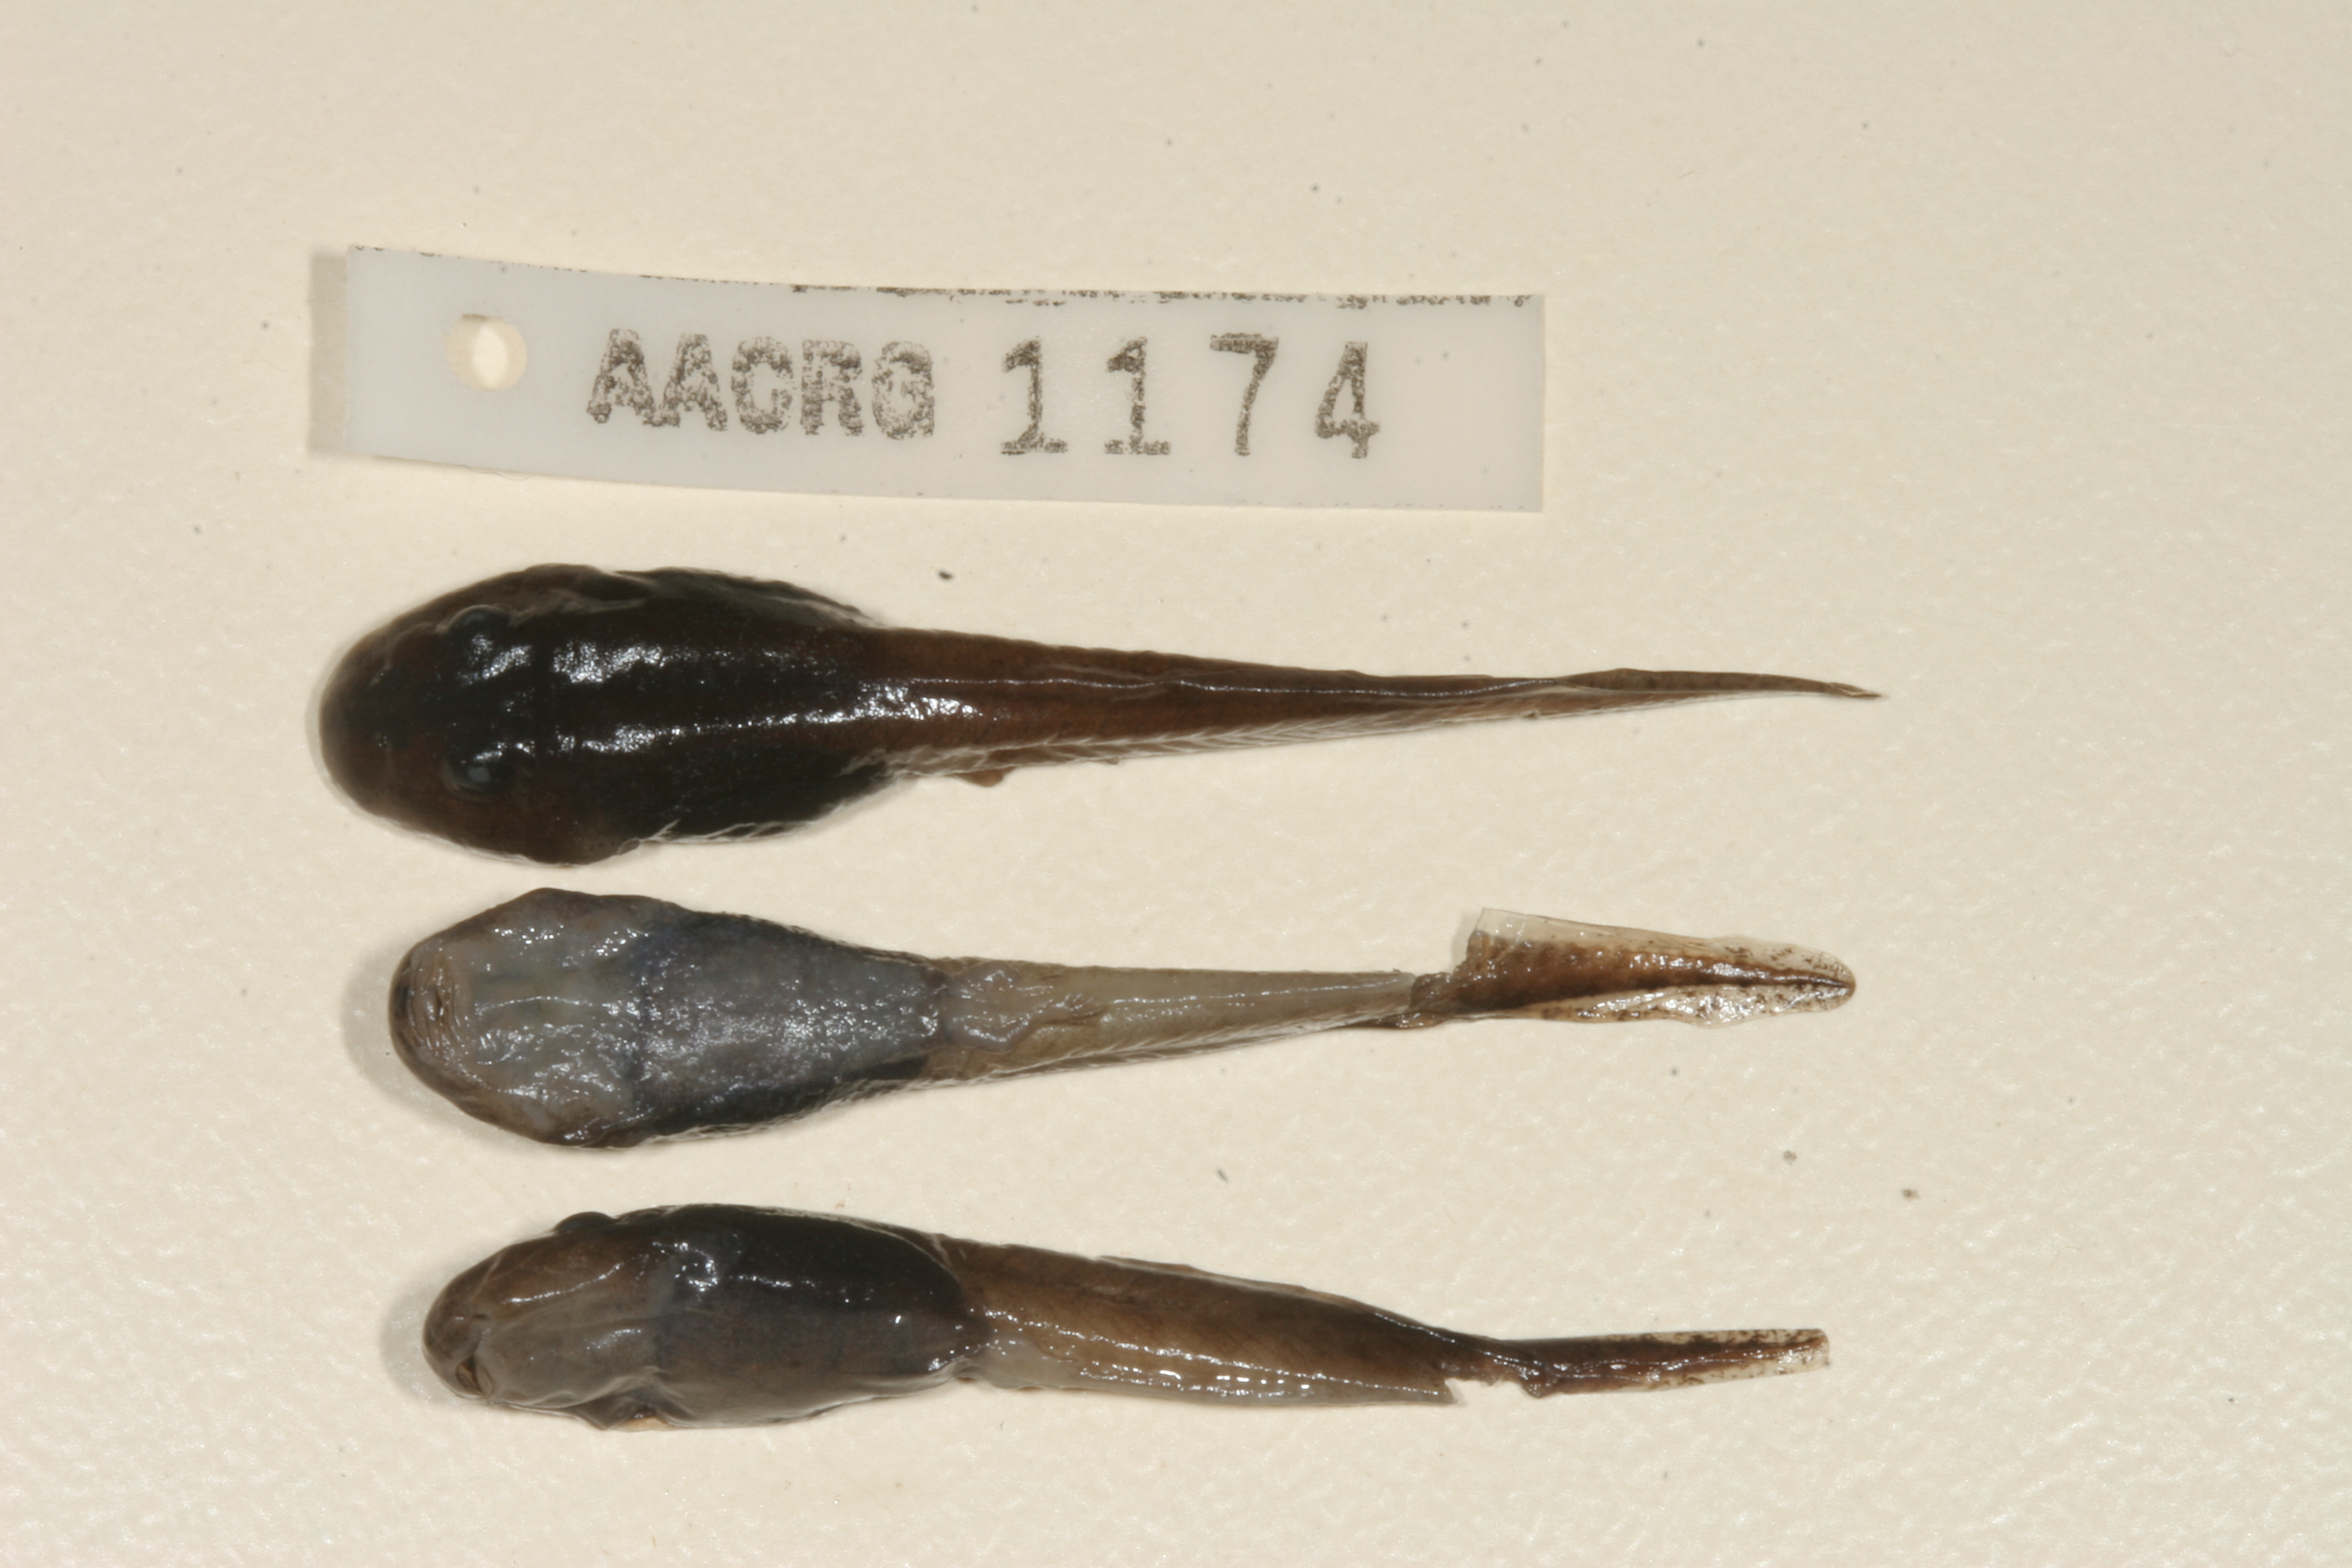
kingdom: Animalia
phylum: Chordata
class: Amphibia
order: Anura
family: Pyxicephalidae
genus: Amietia
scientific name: Amietia vertebralis
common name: Drakensberg stream frog
